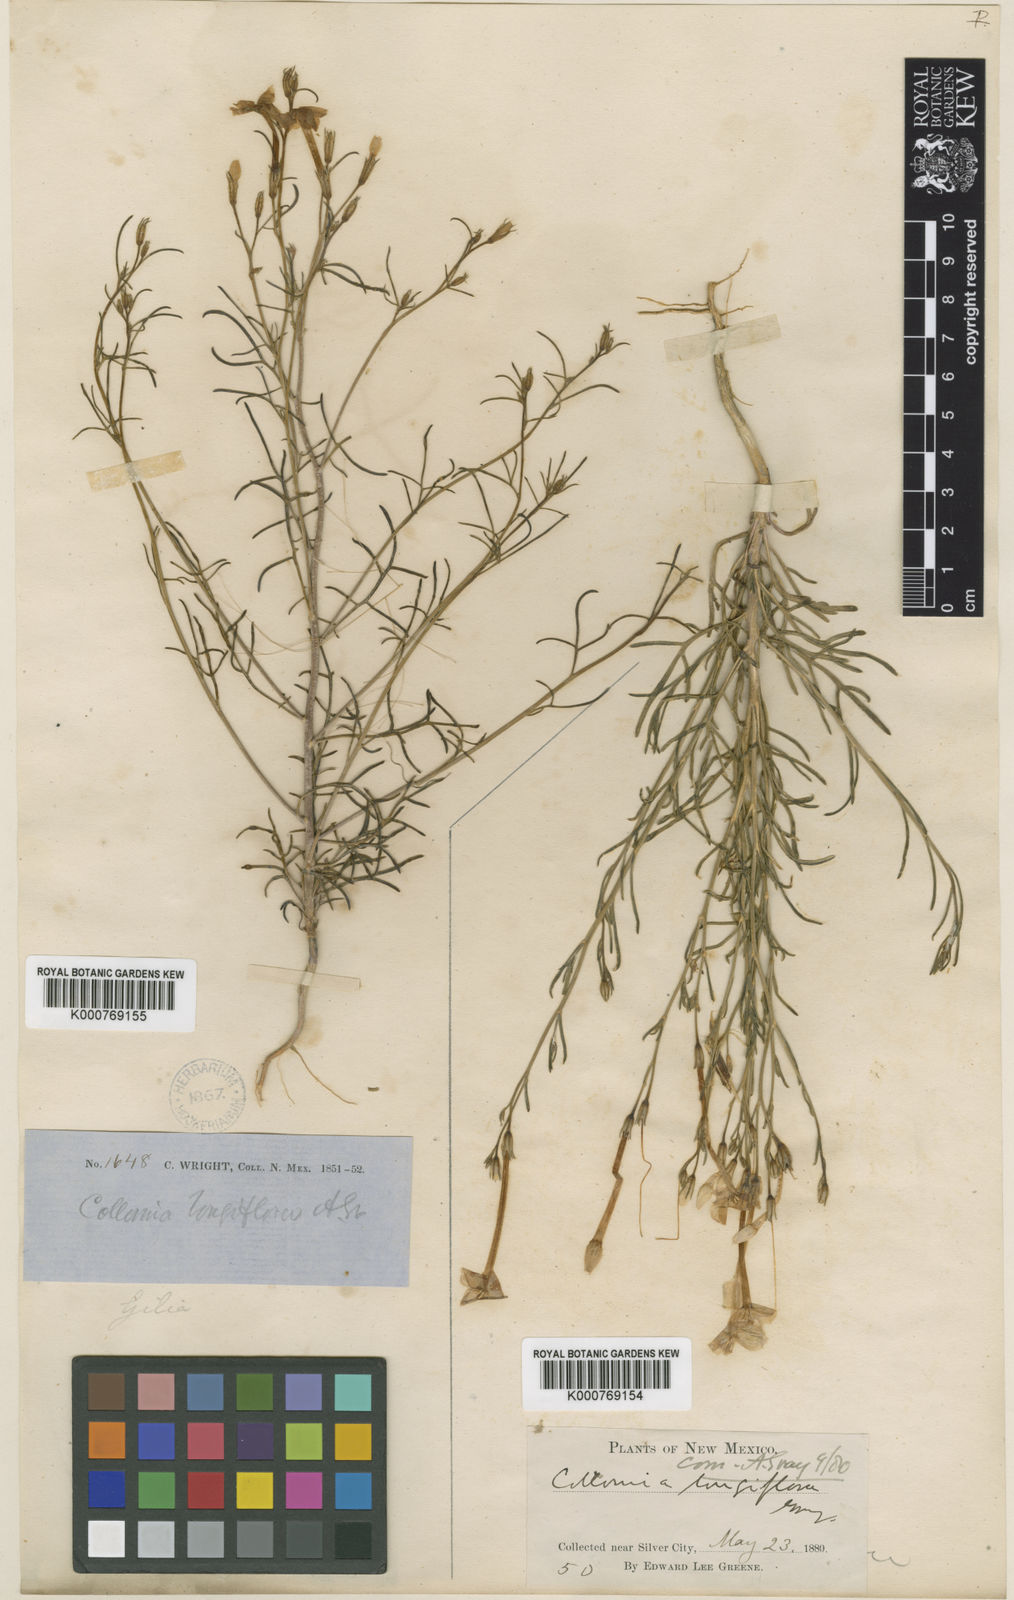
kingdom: Plantae
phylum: Tracheophyta
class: Magnoliopsida
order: Ericales
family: Polemoniaceae
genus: Ipomopsis
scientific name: Ipomopsis longiflora
